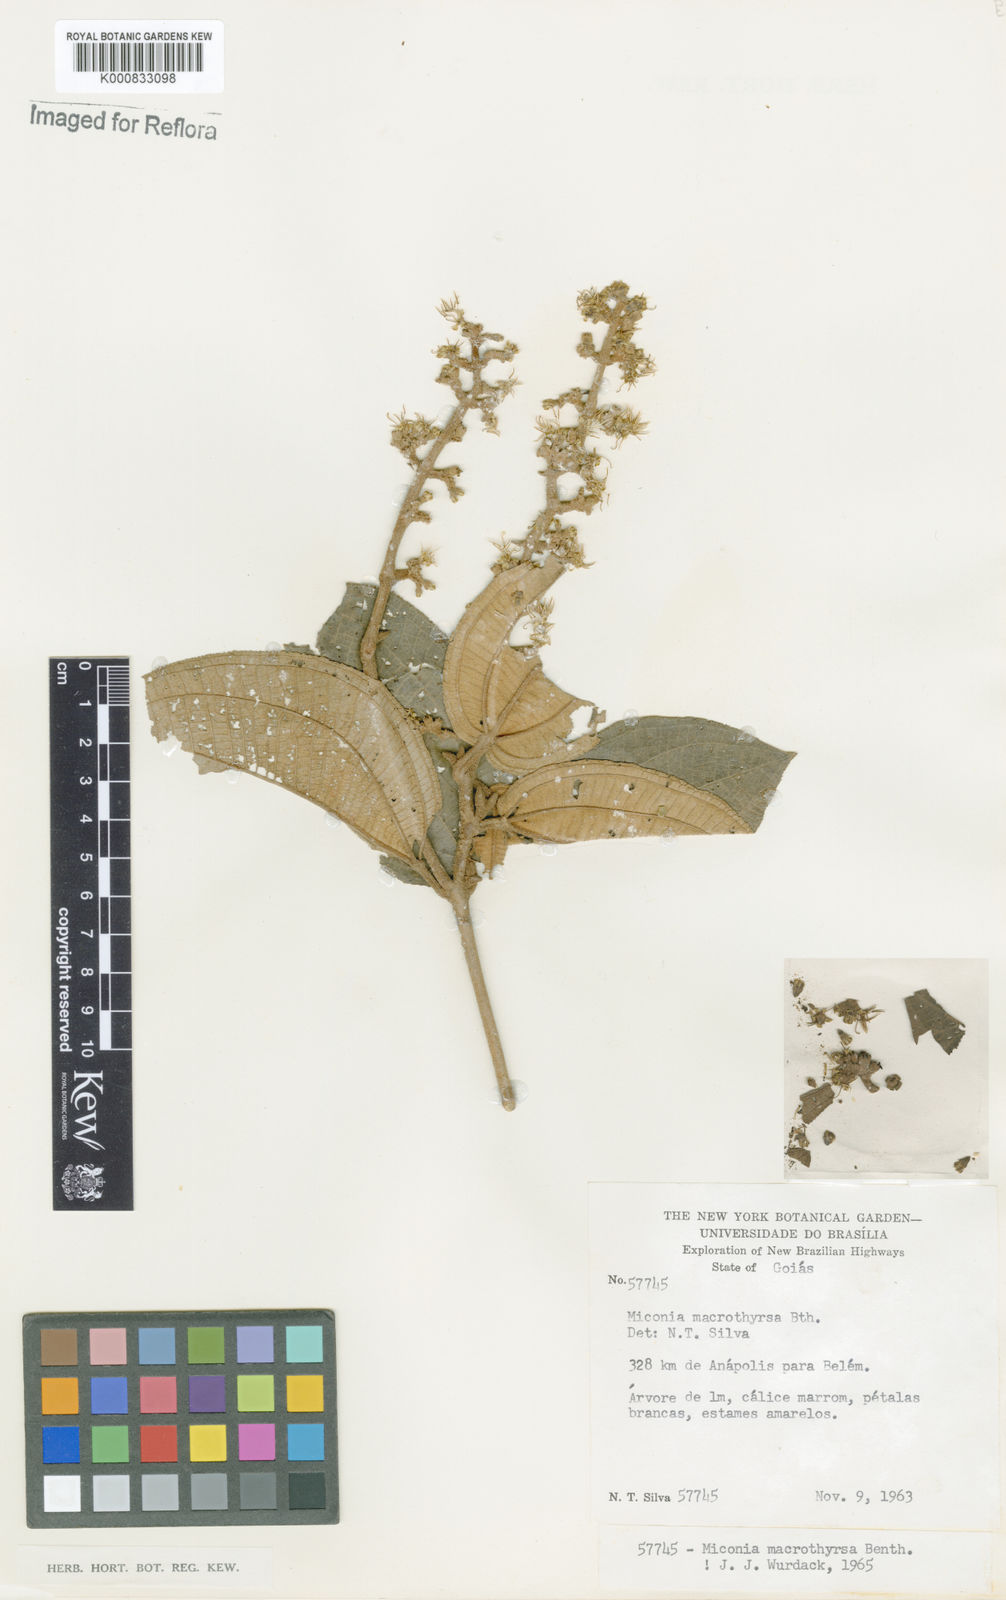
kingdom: Plantae
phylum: Tracheophyta
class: Magnoliopsida
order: Myrtales
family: Melastomataceae
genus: Miconia
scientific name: Miconia macrothyrsa
